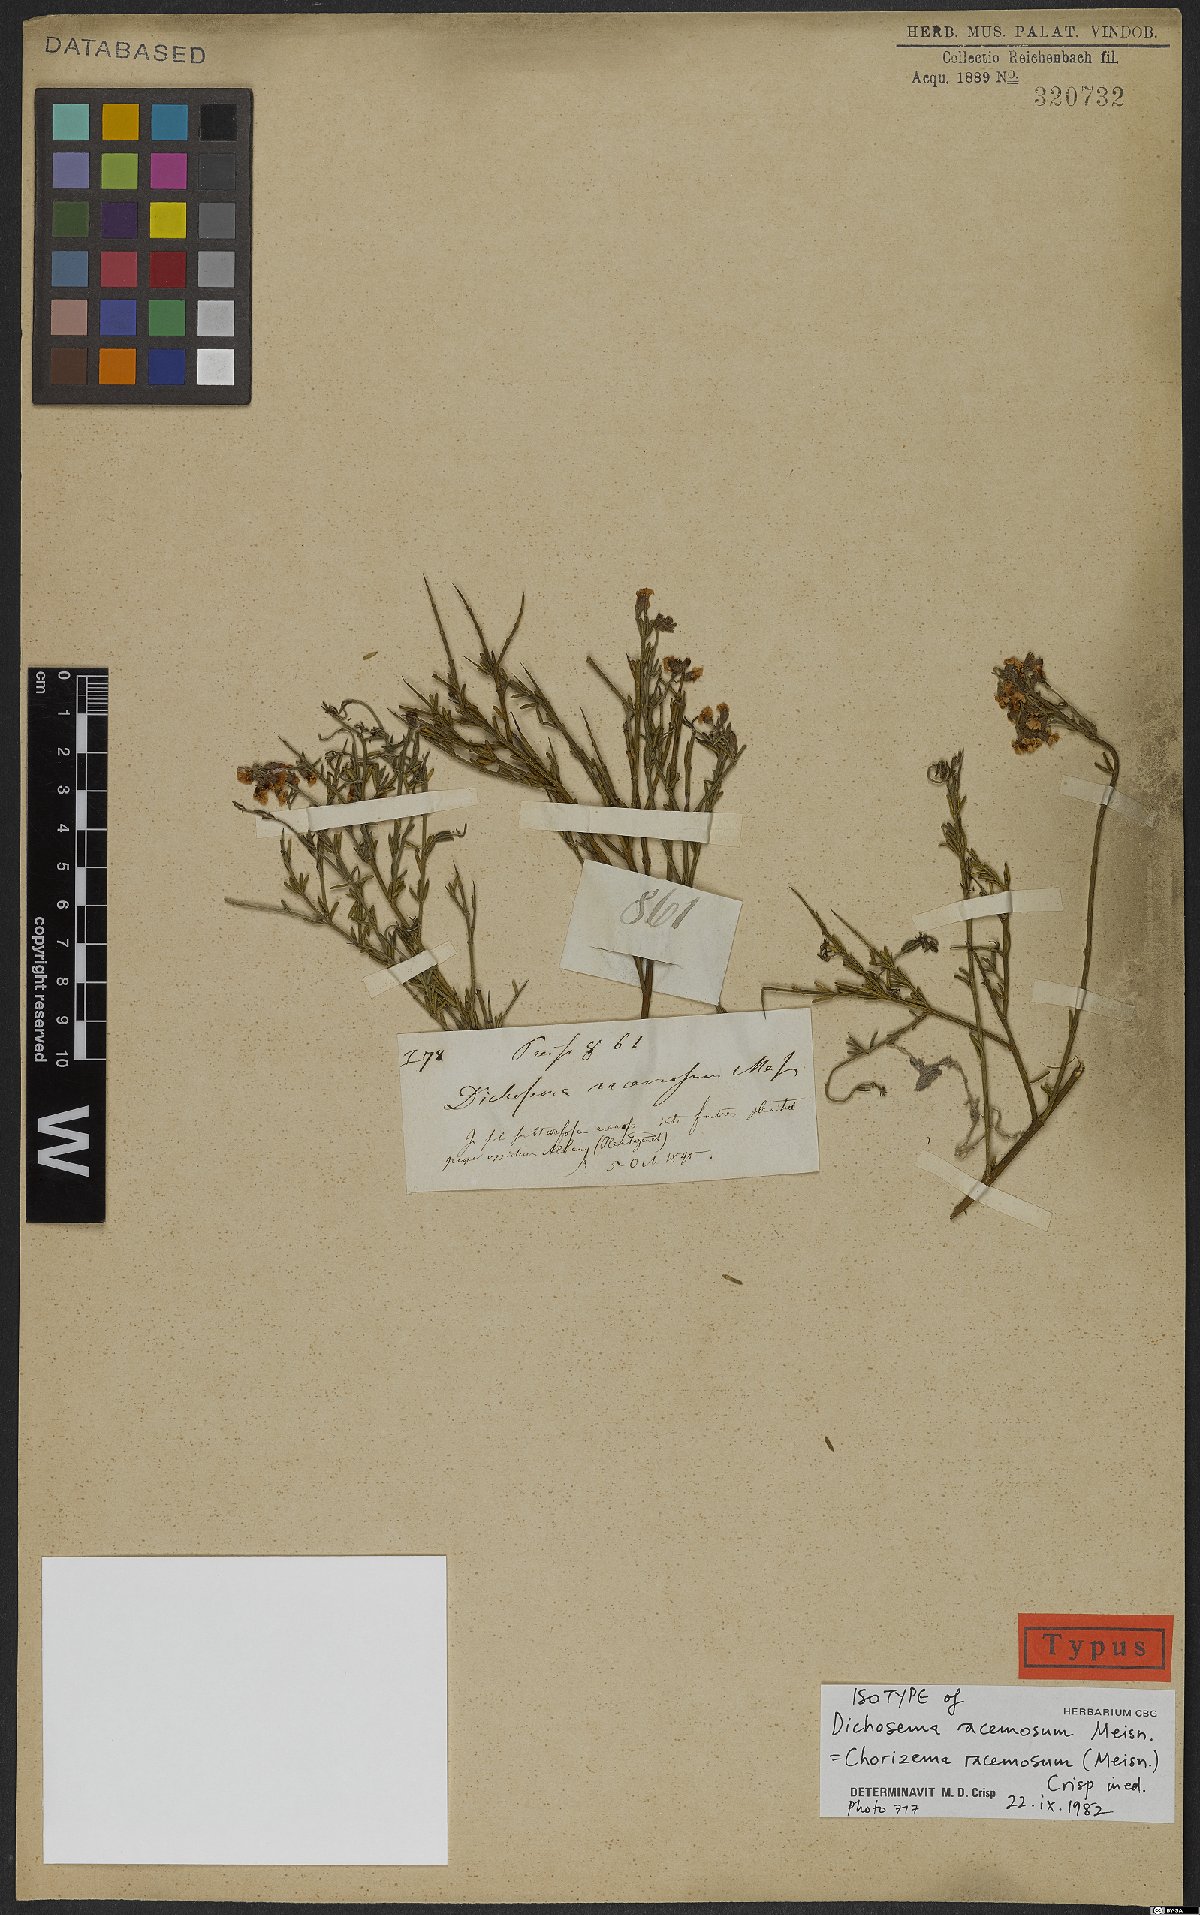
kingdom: Plantae
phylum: Tracheophyta
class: Magnoliopsida
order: Fabales
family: Fabaceae
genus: Chorizema
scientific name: Chorizema racemosum
